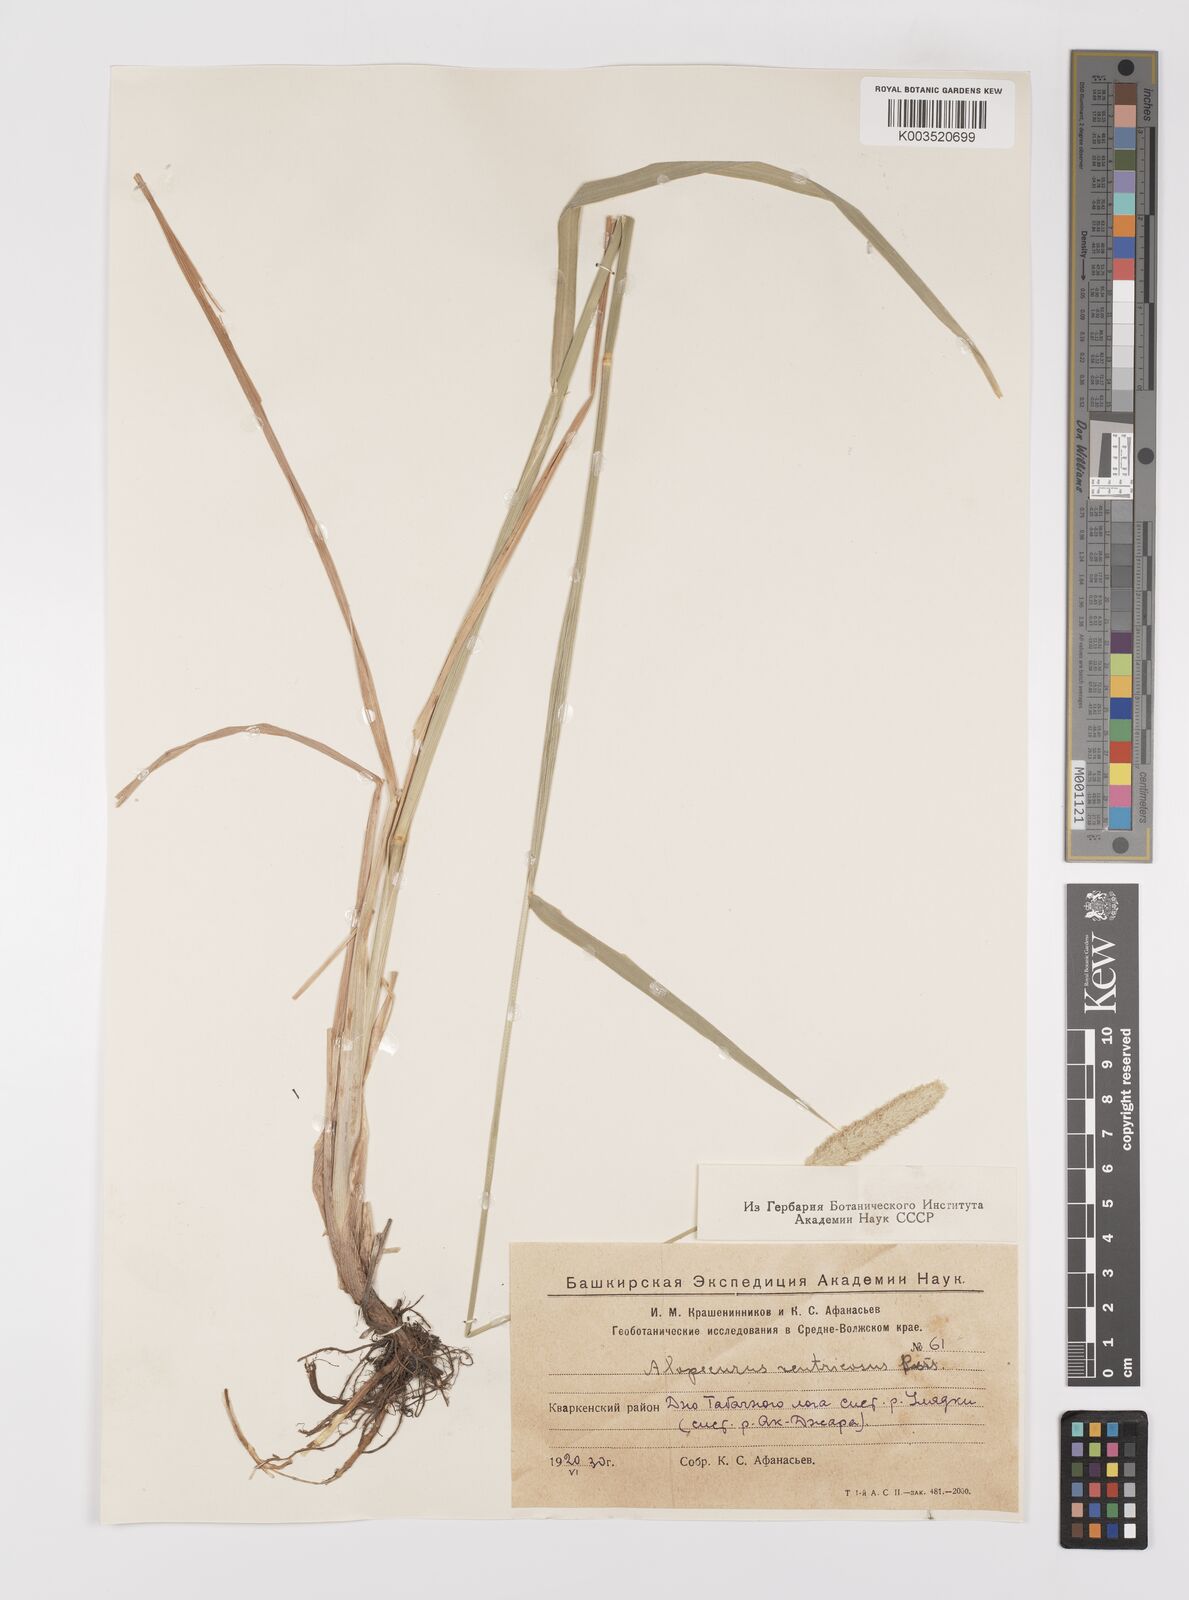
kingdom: Plantae
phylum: Tracheophyta
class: Liliopsida
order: Poales
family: Poaceae
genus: Alopecurus
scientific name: Alopecurus arundinaceus
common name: Creeping meadow foxtail
